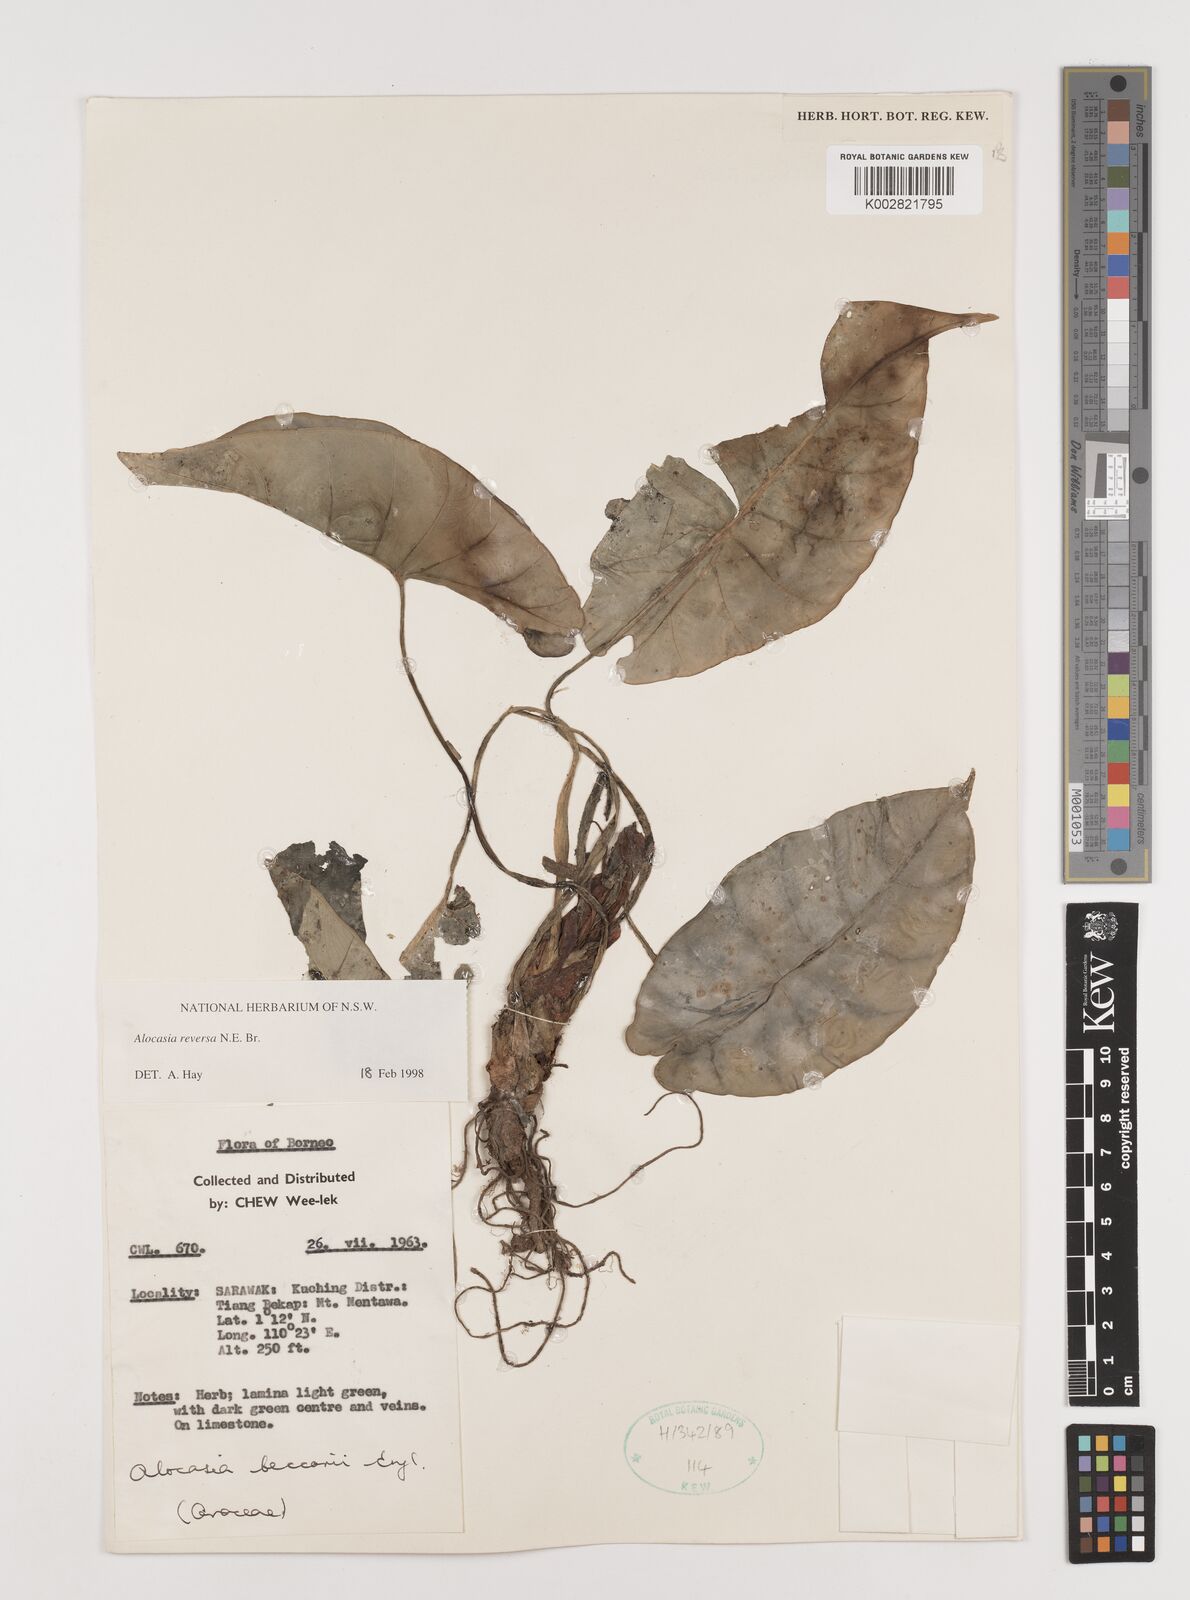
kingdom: Plantae
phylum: Tracheophyta
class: Liliopsida
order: Alismatales
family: Araceae
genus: Alocasia
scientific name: Alocasia reversa
